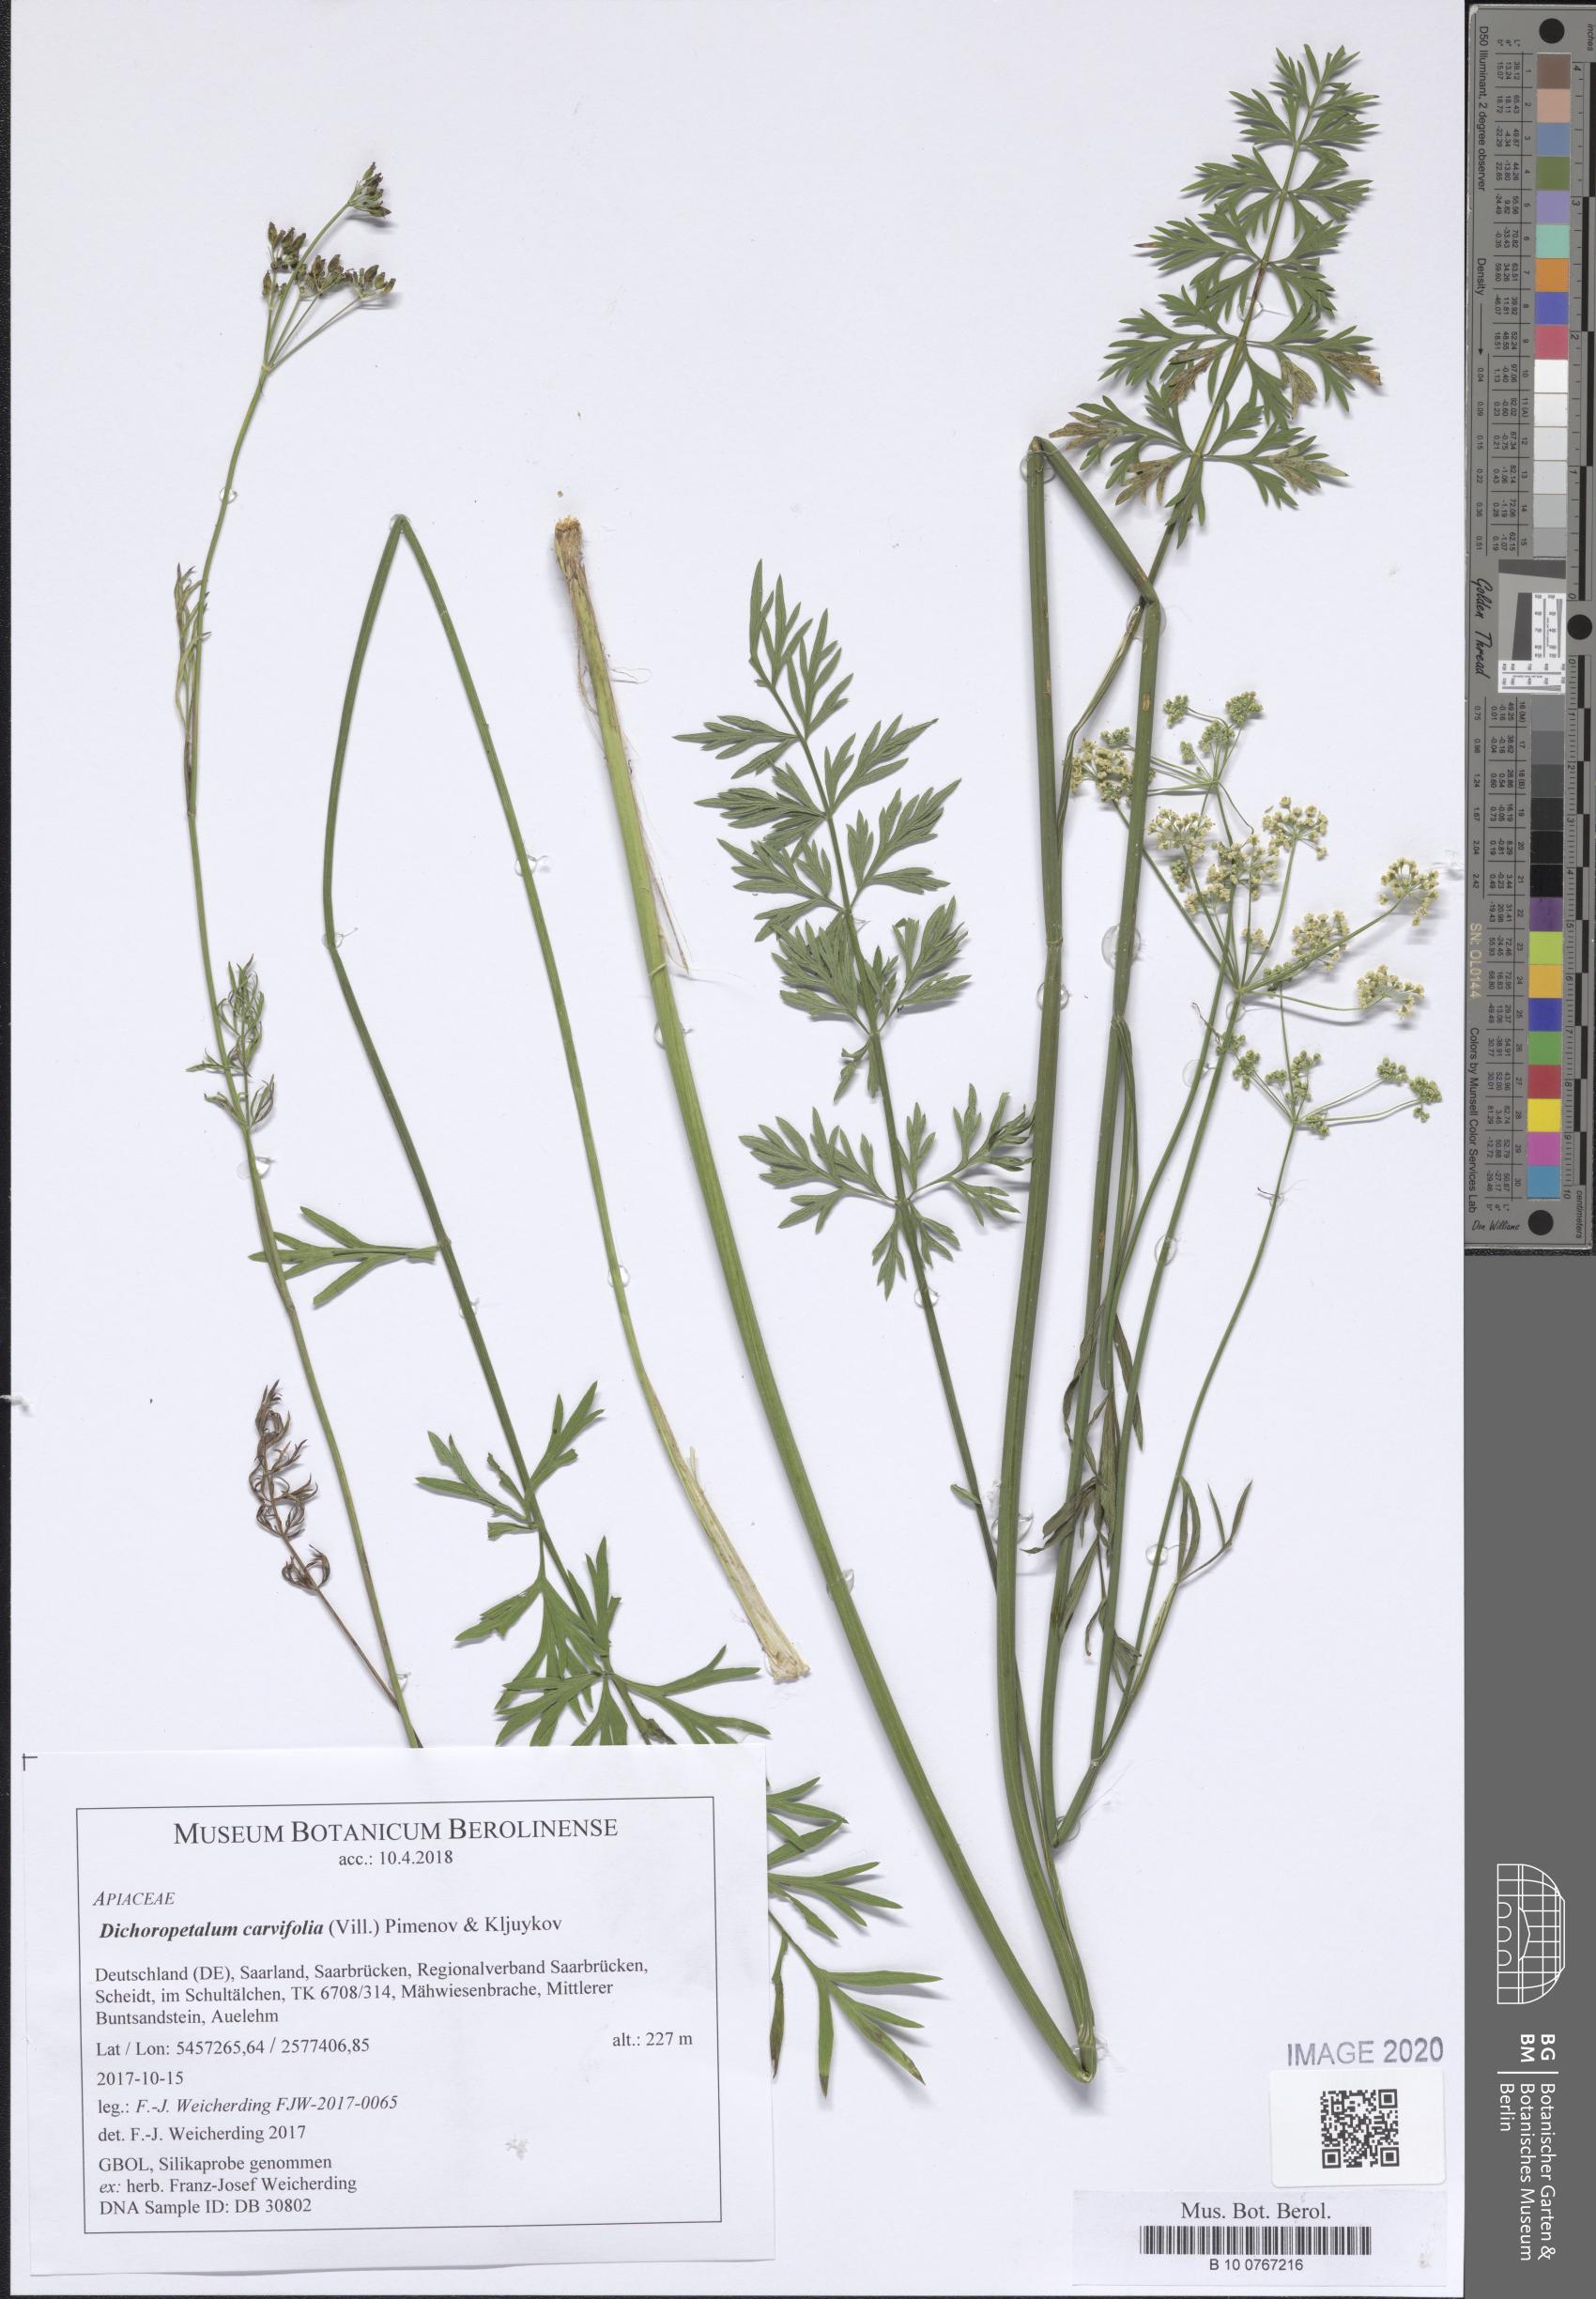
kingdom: Plantae
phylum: Tracheophyta
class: Magnoliopsida
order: Apiales
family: Apiaceae
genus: Dichoropetalum
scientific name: Dichoropetalum carvifolia
